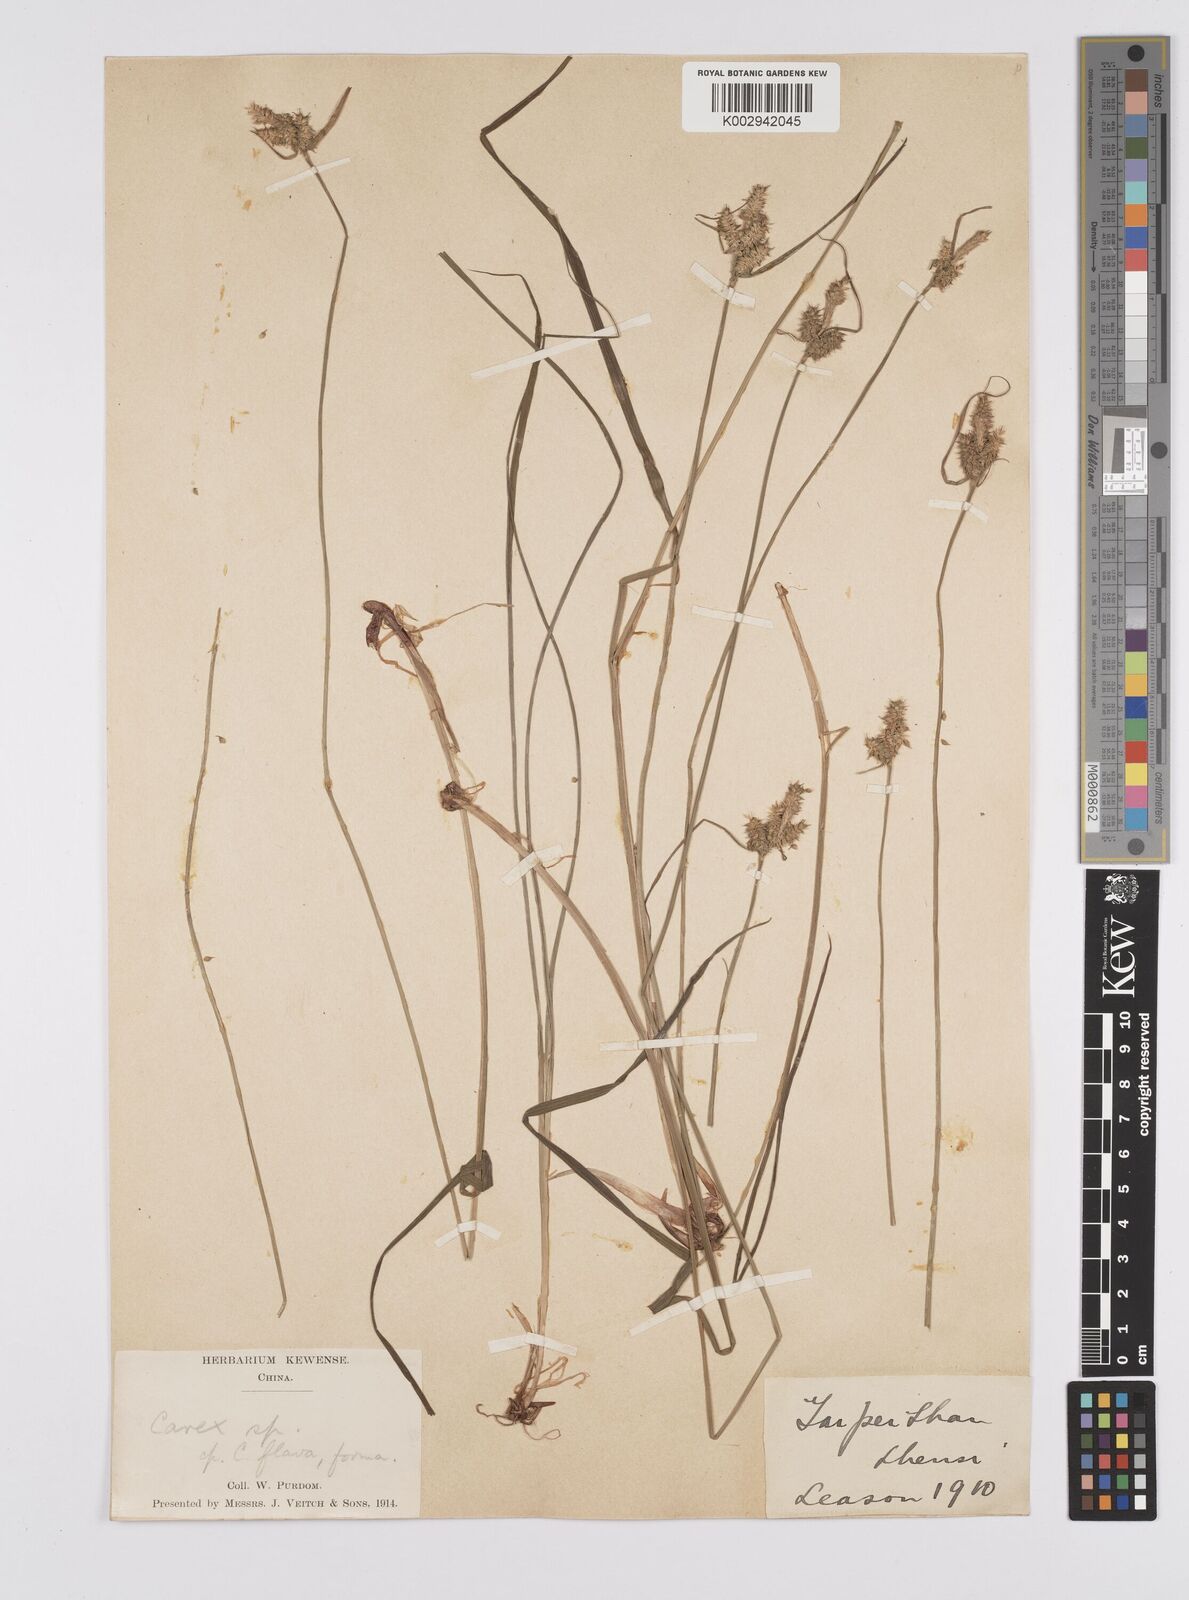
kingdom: Plantae
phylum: Tracheophyta
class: Liliopsida
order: Poales
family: Cyperaceae
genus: Carex
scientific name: Carex agglomerata
